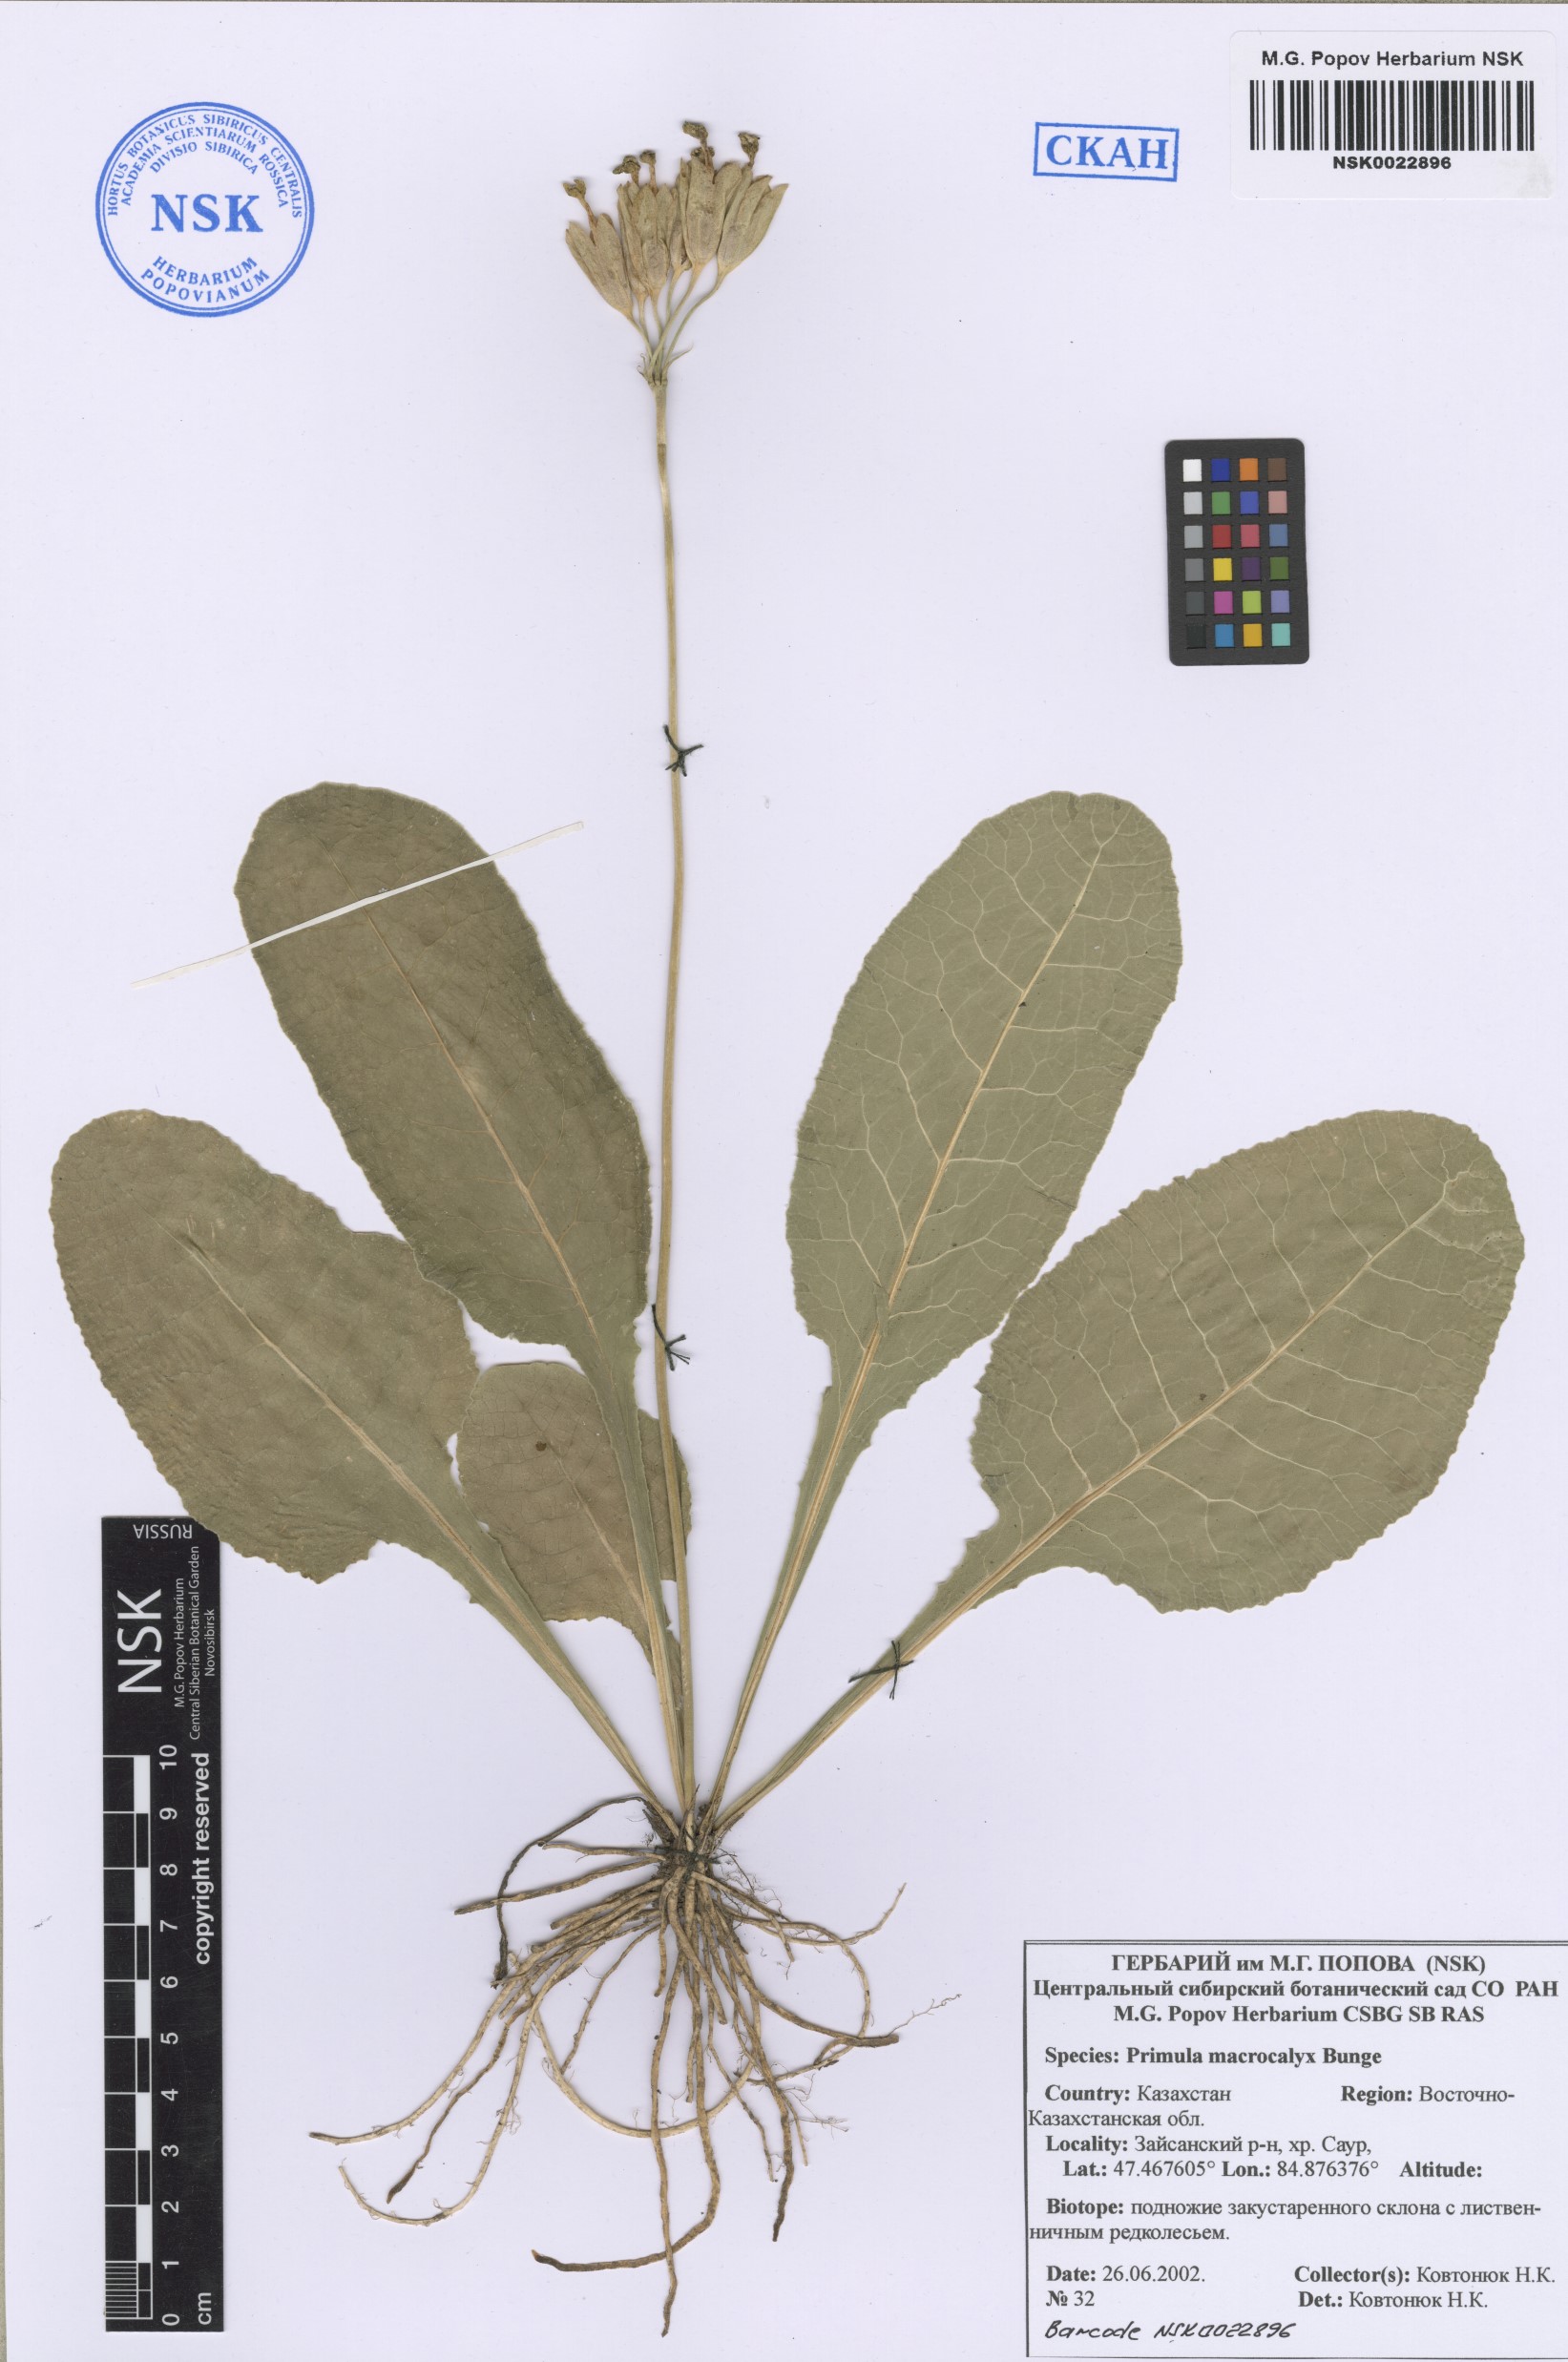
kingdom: Plantae
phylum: Tracheophyta
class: Magnoliopsida
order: Ericales
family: Primulaceae
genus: Primula
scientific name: Primula veris
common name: Cowslip
